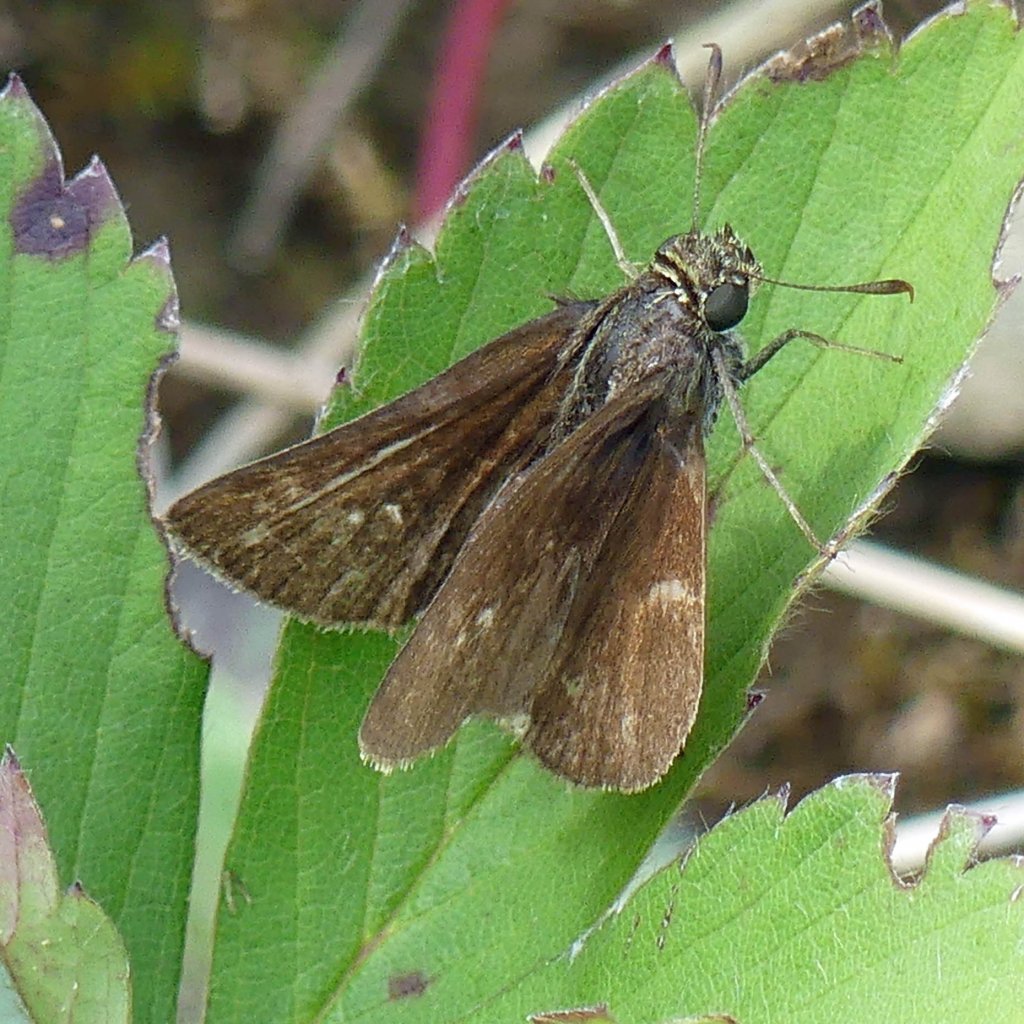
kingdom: Animalia
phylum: Arthropoda
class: Insecta
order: Lepidoptera
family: Hesperiidae
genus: Euphyes
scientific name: Euphyes vestris
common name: Dun Skipper
